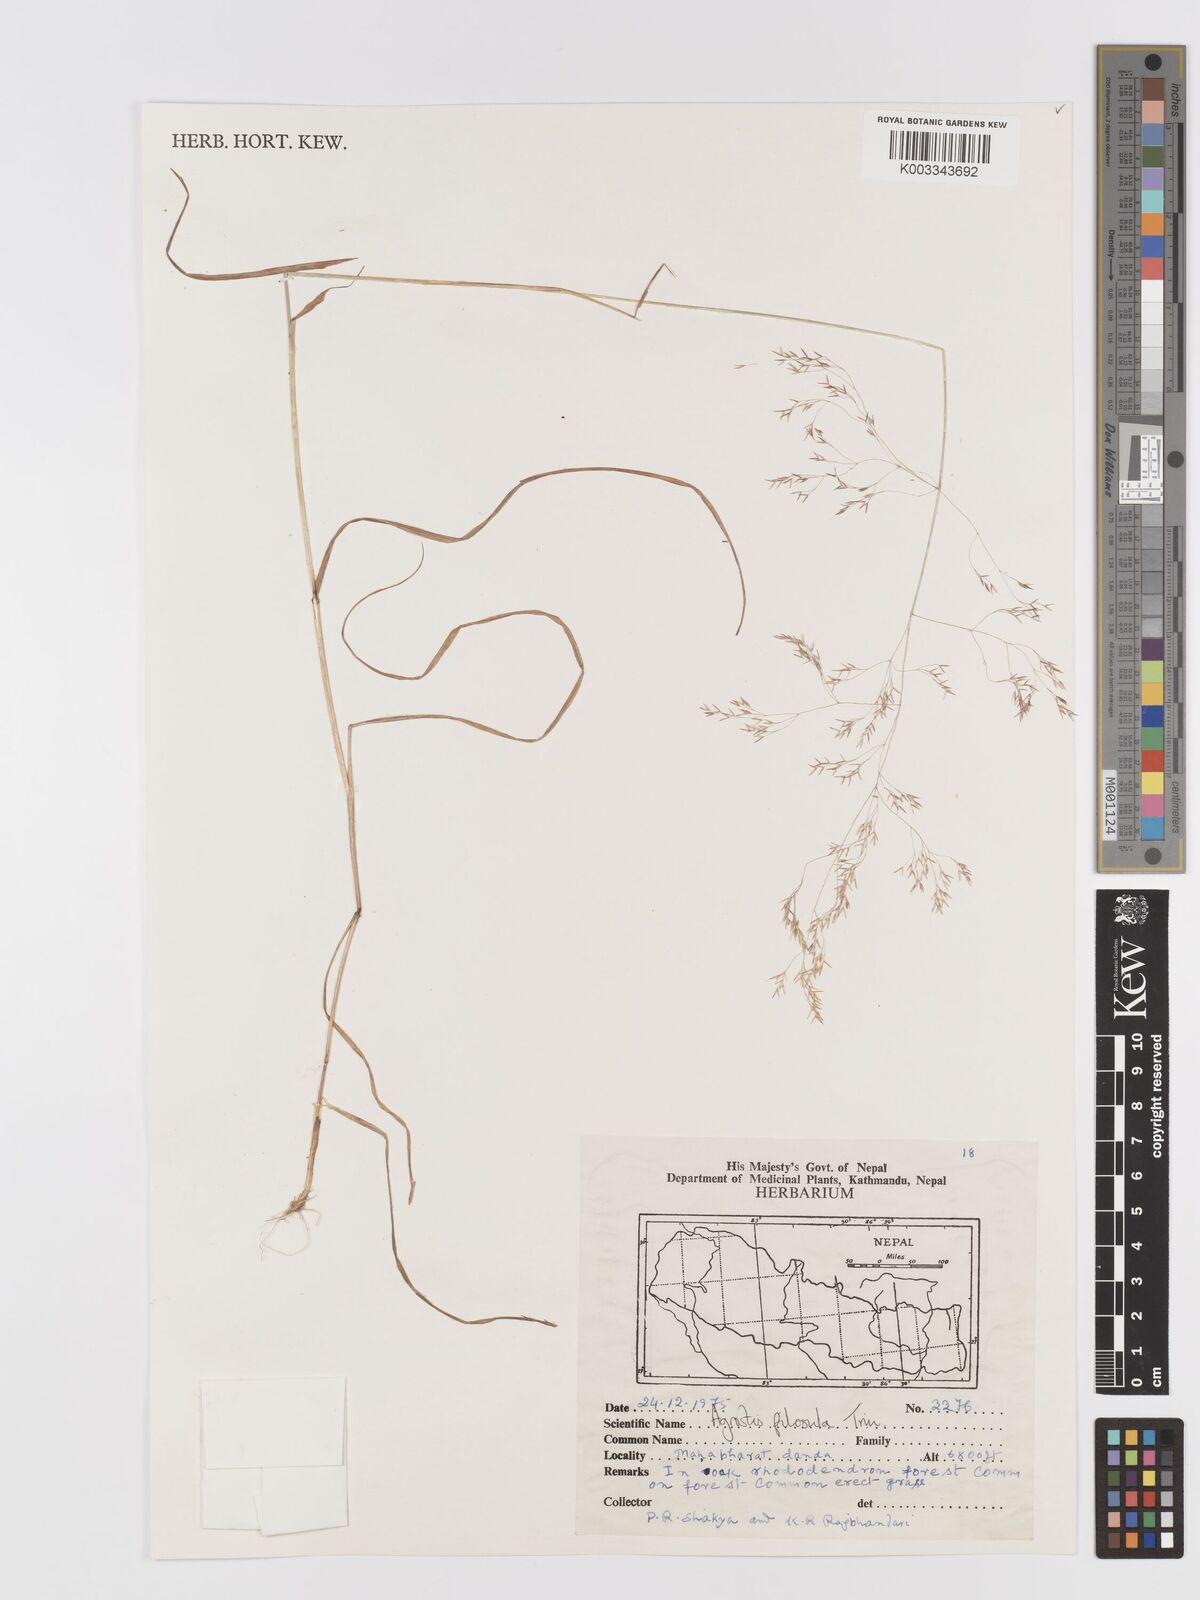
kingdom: Plantae
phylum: Tracheophyta
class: Liliopsida
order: Poales
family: Poaceae
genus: Agrostis
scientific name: Agrostis pilosula
